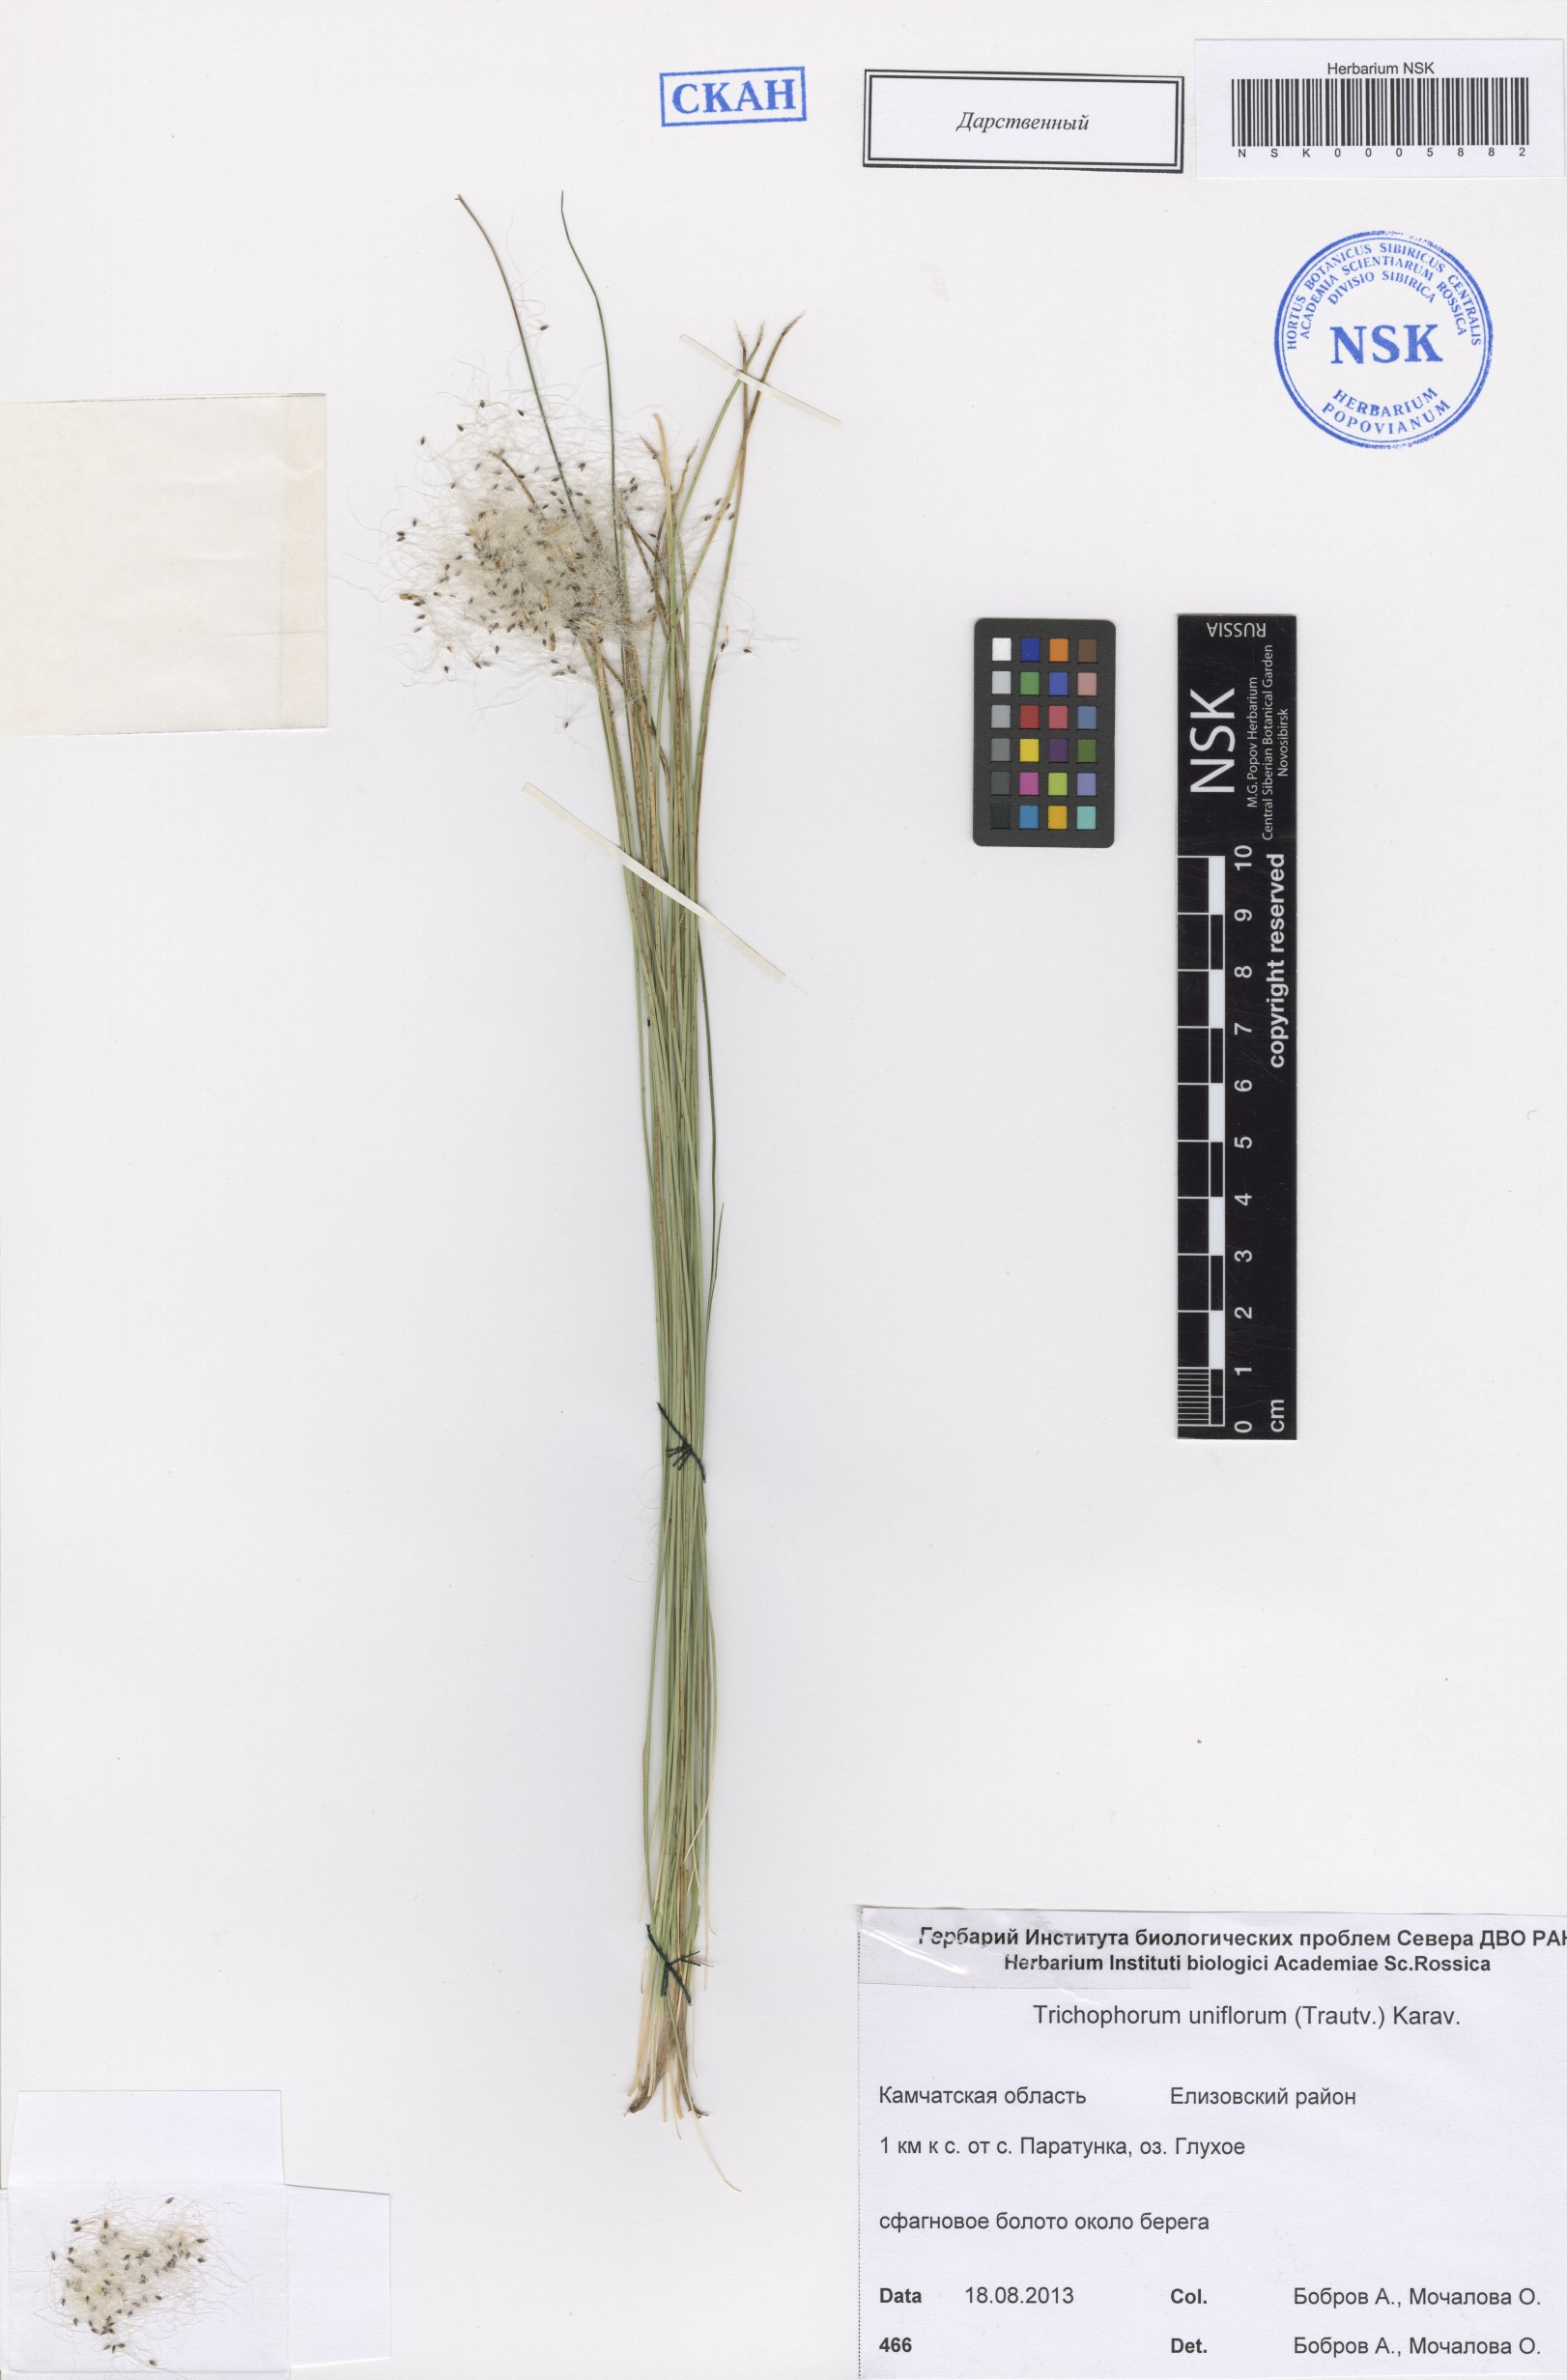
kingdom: Plantae
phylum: Tracheophyta
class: Liliopsida
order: Poales
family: Cyperaceae
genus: Trichophorum
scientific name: Trichophorum uniflorum
